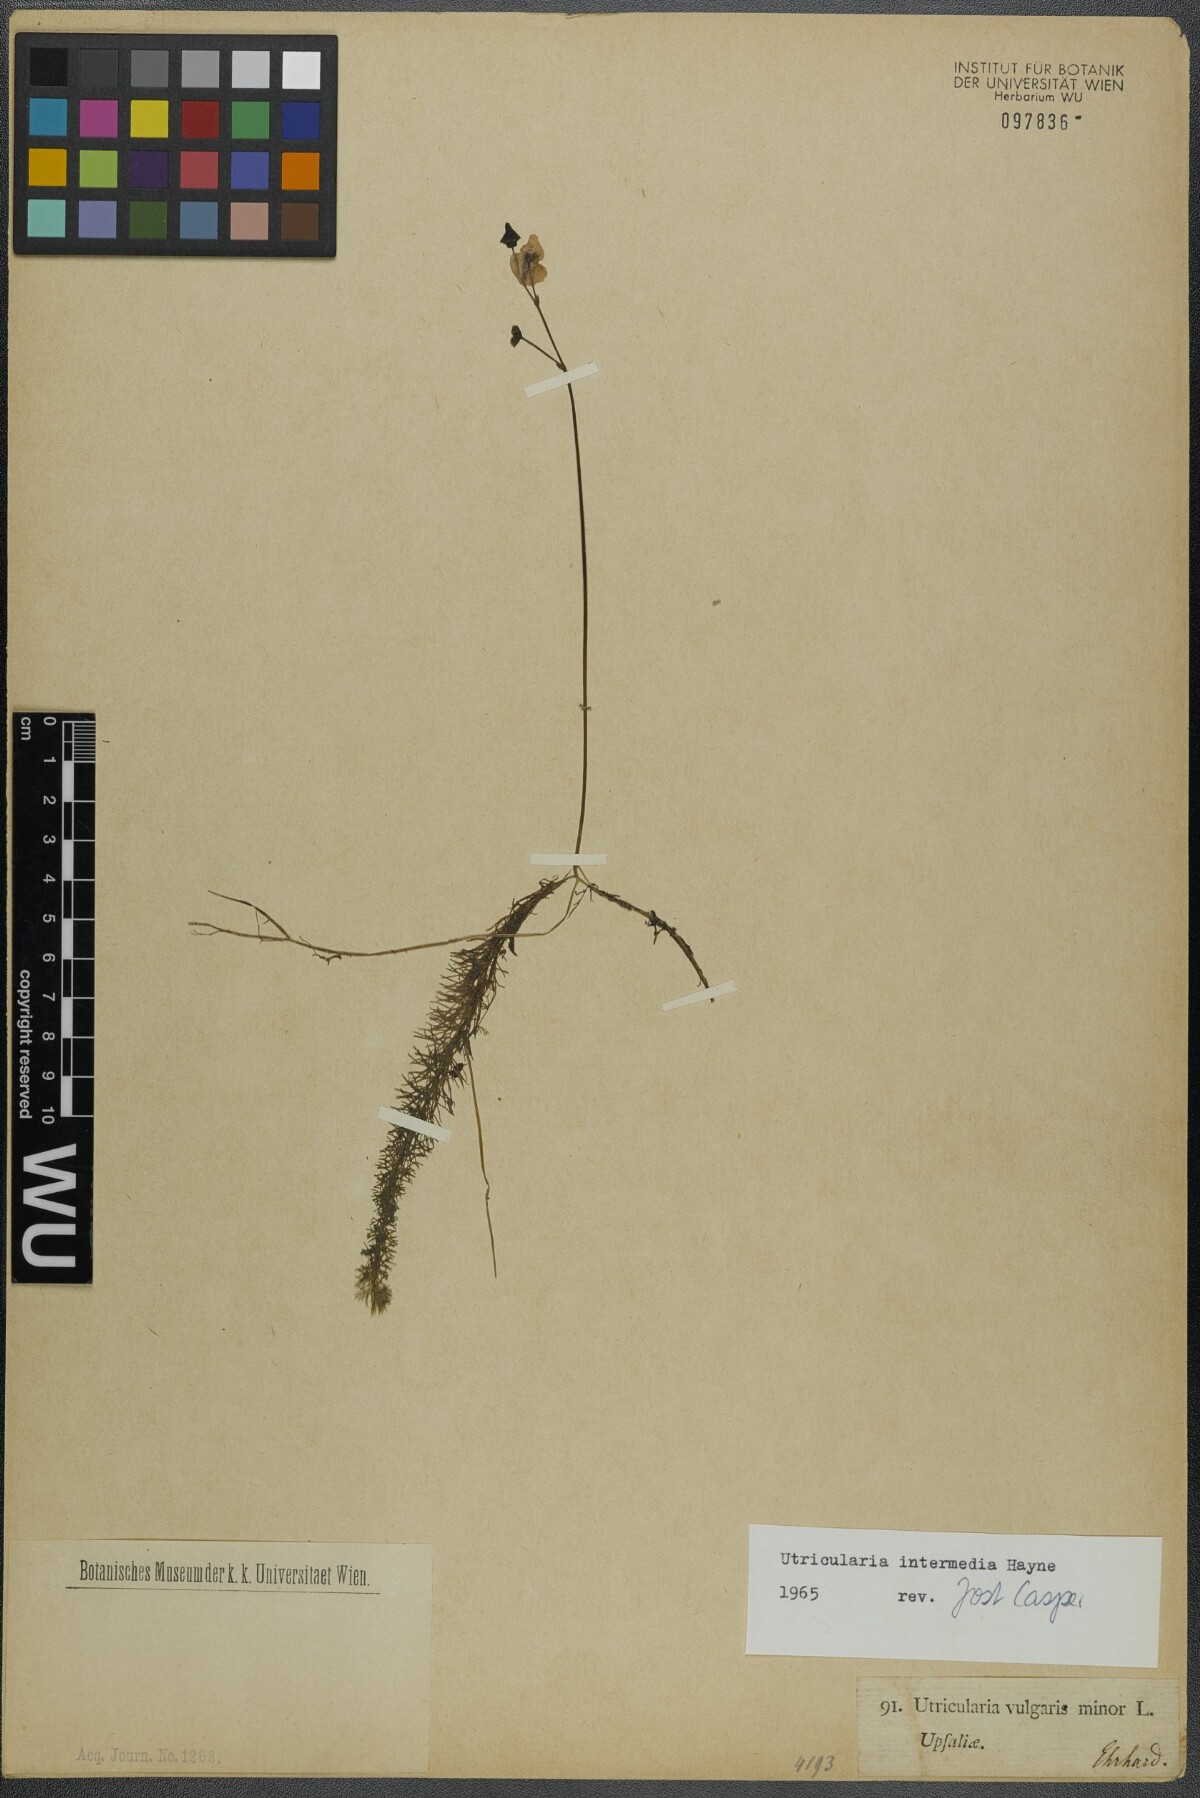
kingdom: Plantae
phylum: Tracheophyta
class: Magnoliopsida
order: Lamiales
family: Lentibulariaceae
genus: Utricularia
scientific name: Utricularia intermedia
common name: Intermediate bladderwort
